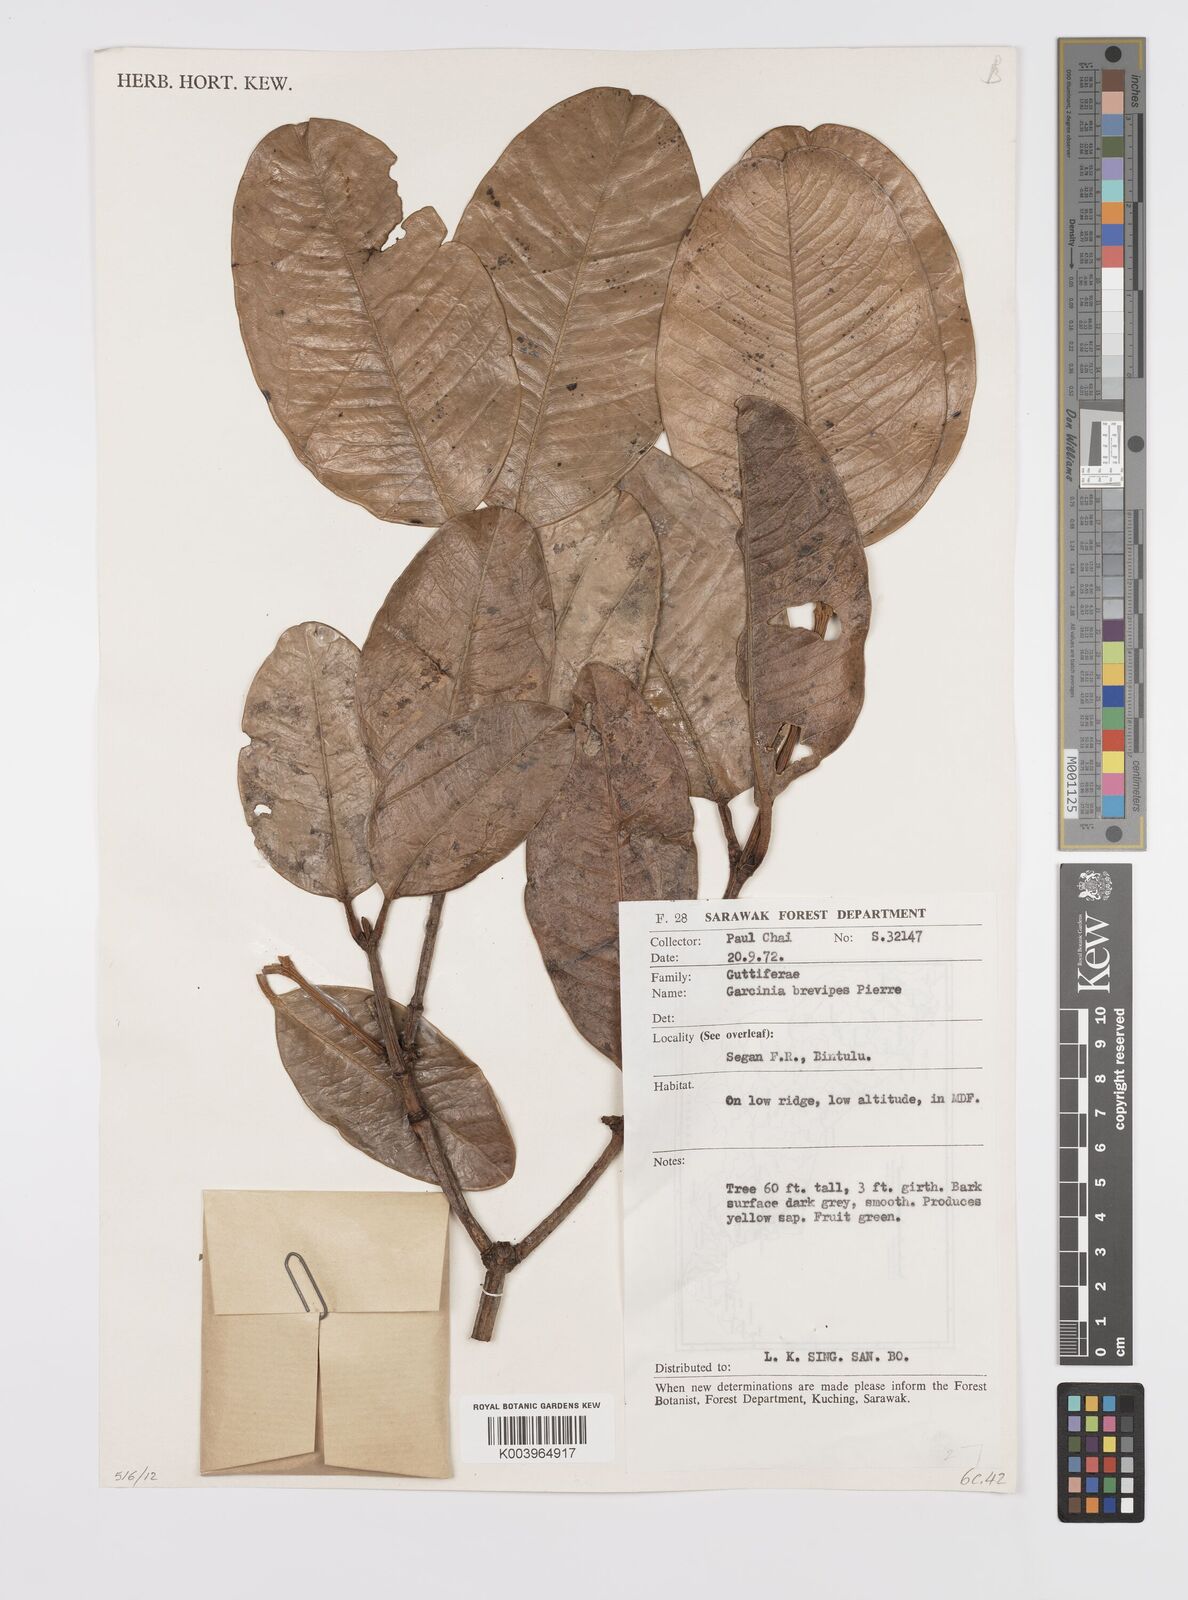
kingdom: Plantae
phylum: Tracheophyta
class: Magnoliopsida
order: Malpighiales
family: Clusiaceae
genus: Garcinia
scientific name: Garcinia brevipes
